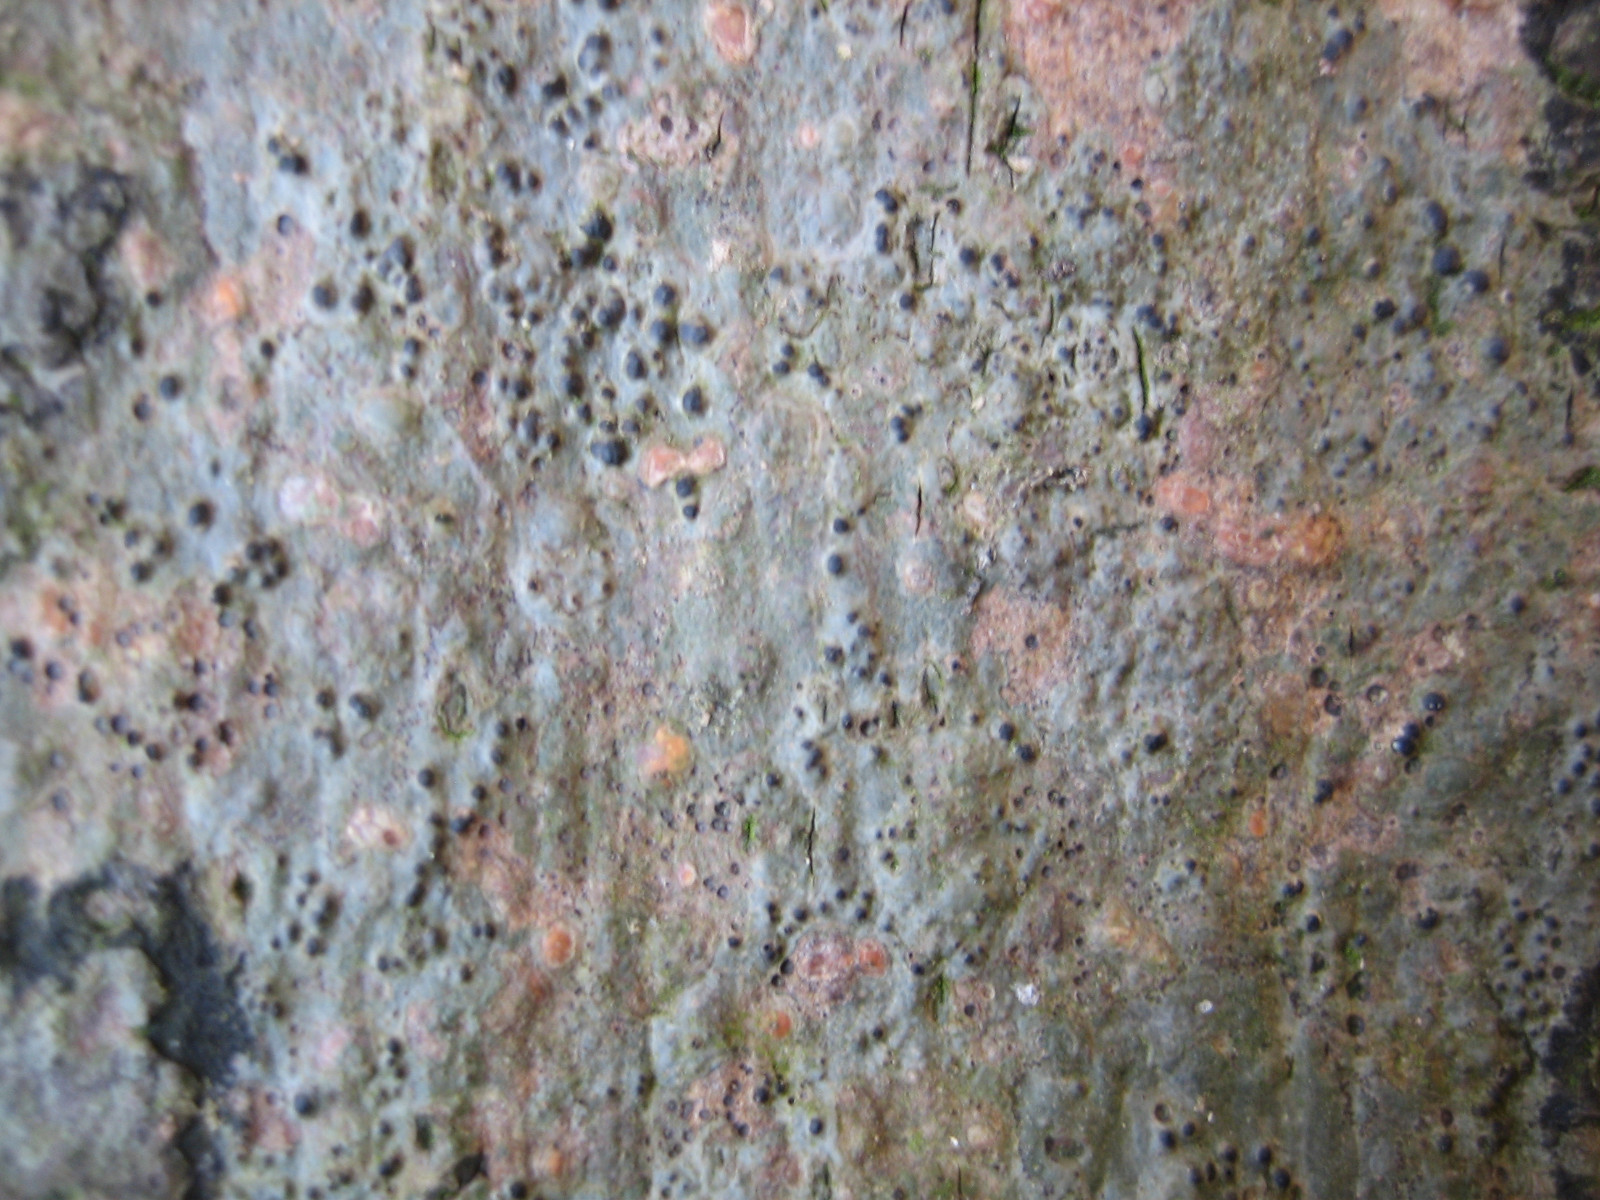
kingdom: Fungi
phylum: Ascomycota
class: Eurotiomycetes
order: Pyrenulales
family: Pyrenulaceae
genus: Pyrenula
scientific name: Pyrenula nitida
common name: glinsende kernelav
